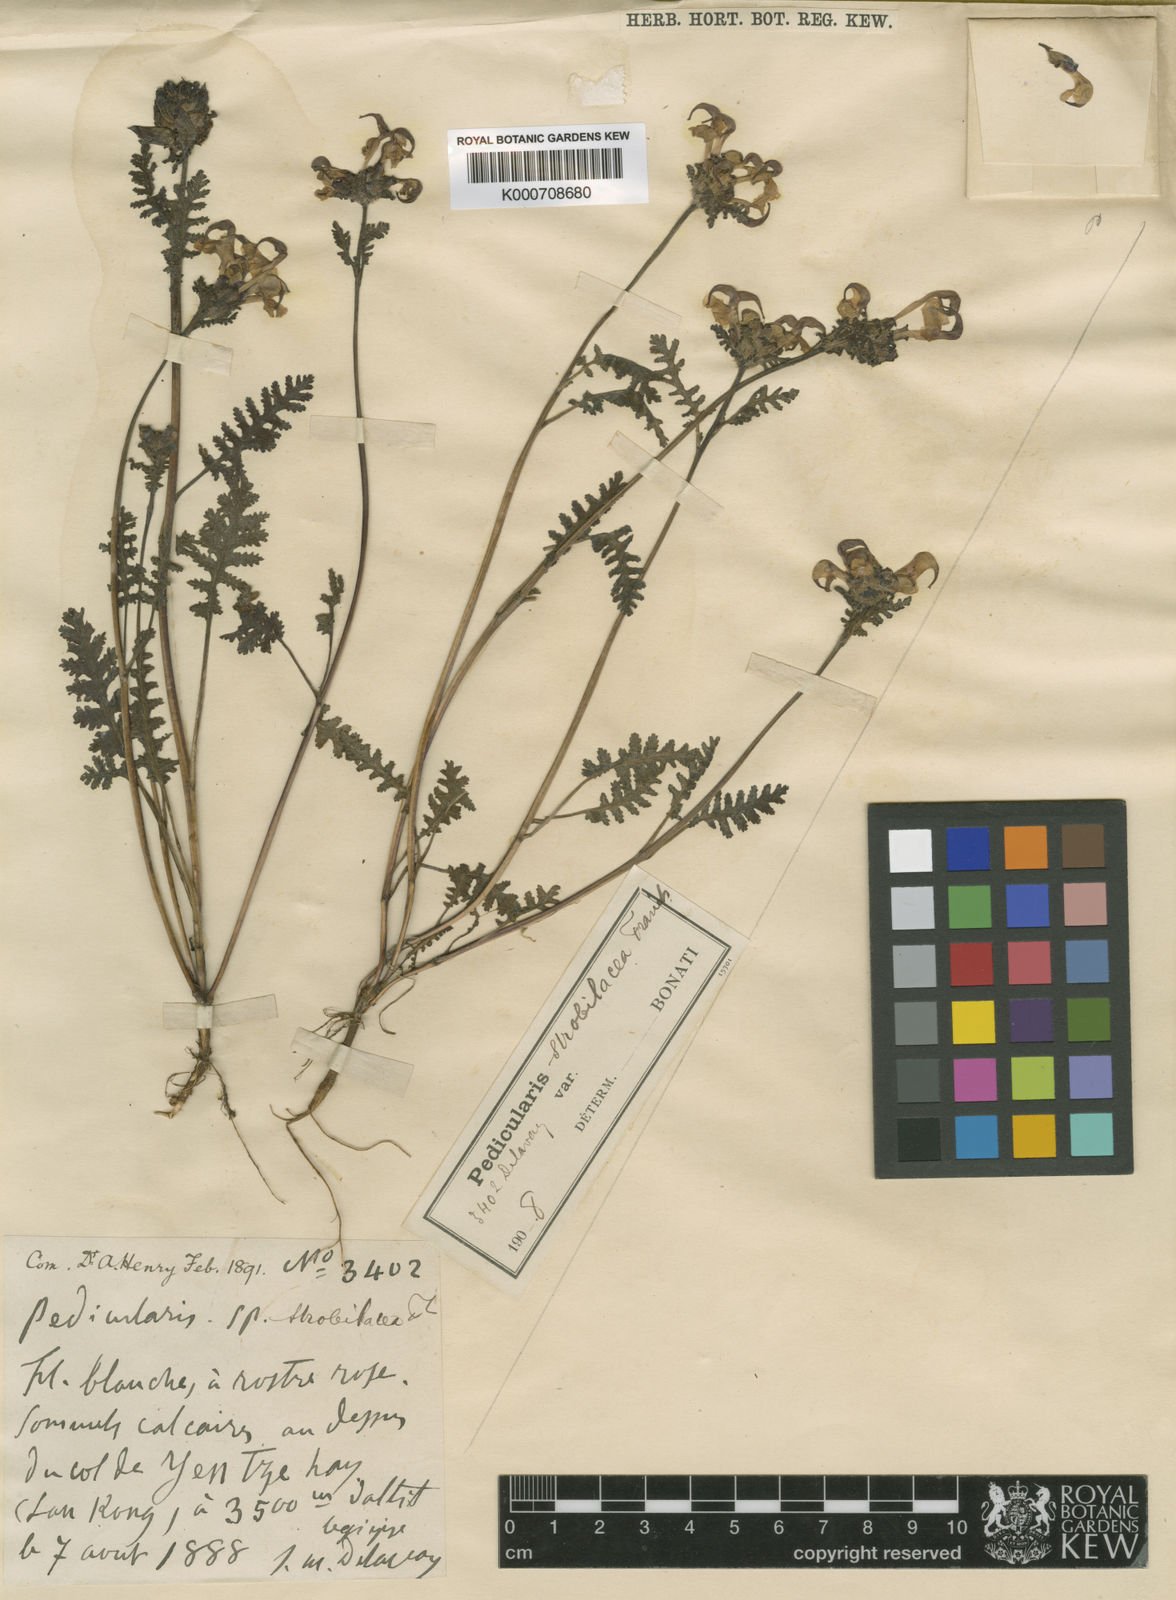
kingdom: Plantae
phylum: Tracheophyta
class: Magnoliopsida
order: Lamiales
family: Orobanchaceae
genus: Pedicularis
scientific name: Pedicularis
